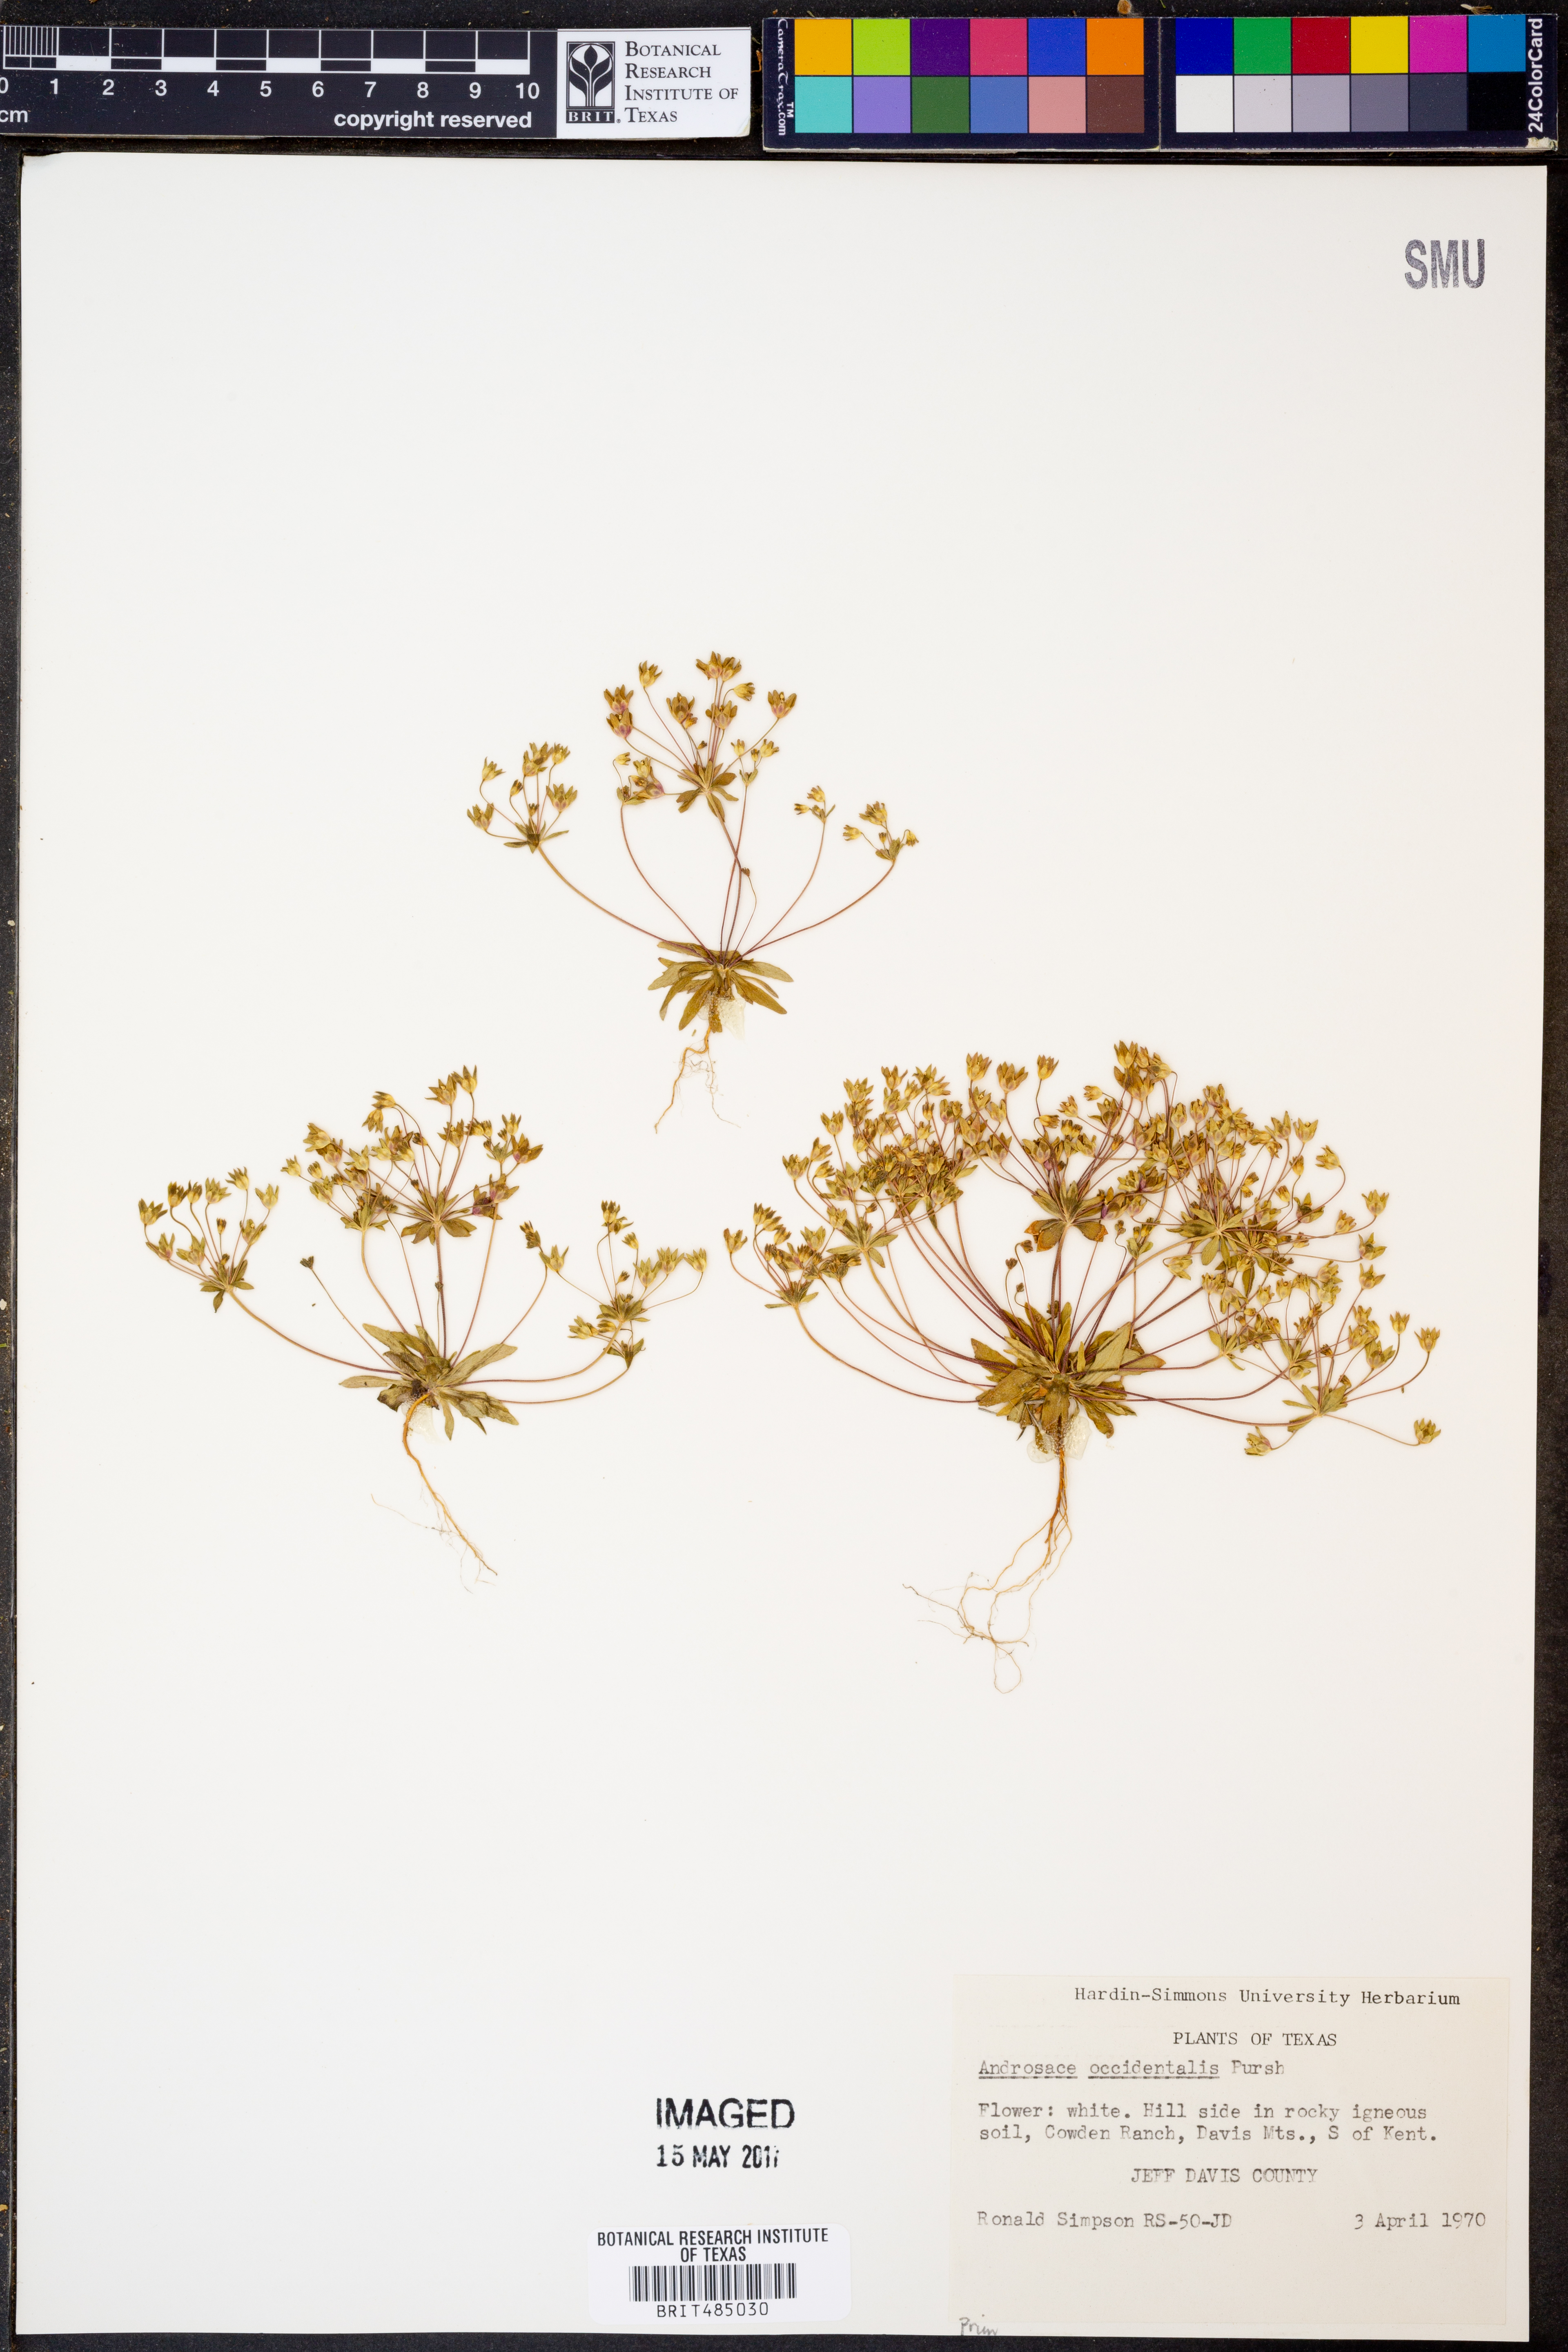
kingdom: Plantae
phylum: Tracheophyta
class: Magnoliopsida
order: Ericales
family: Primulaceae
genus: Androsace
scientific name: Androsace occidentalis
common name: West rock-jasmine
